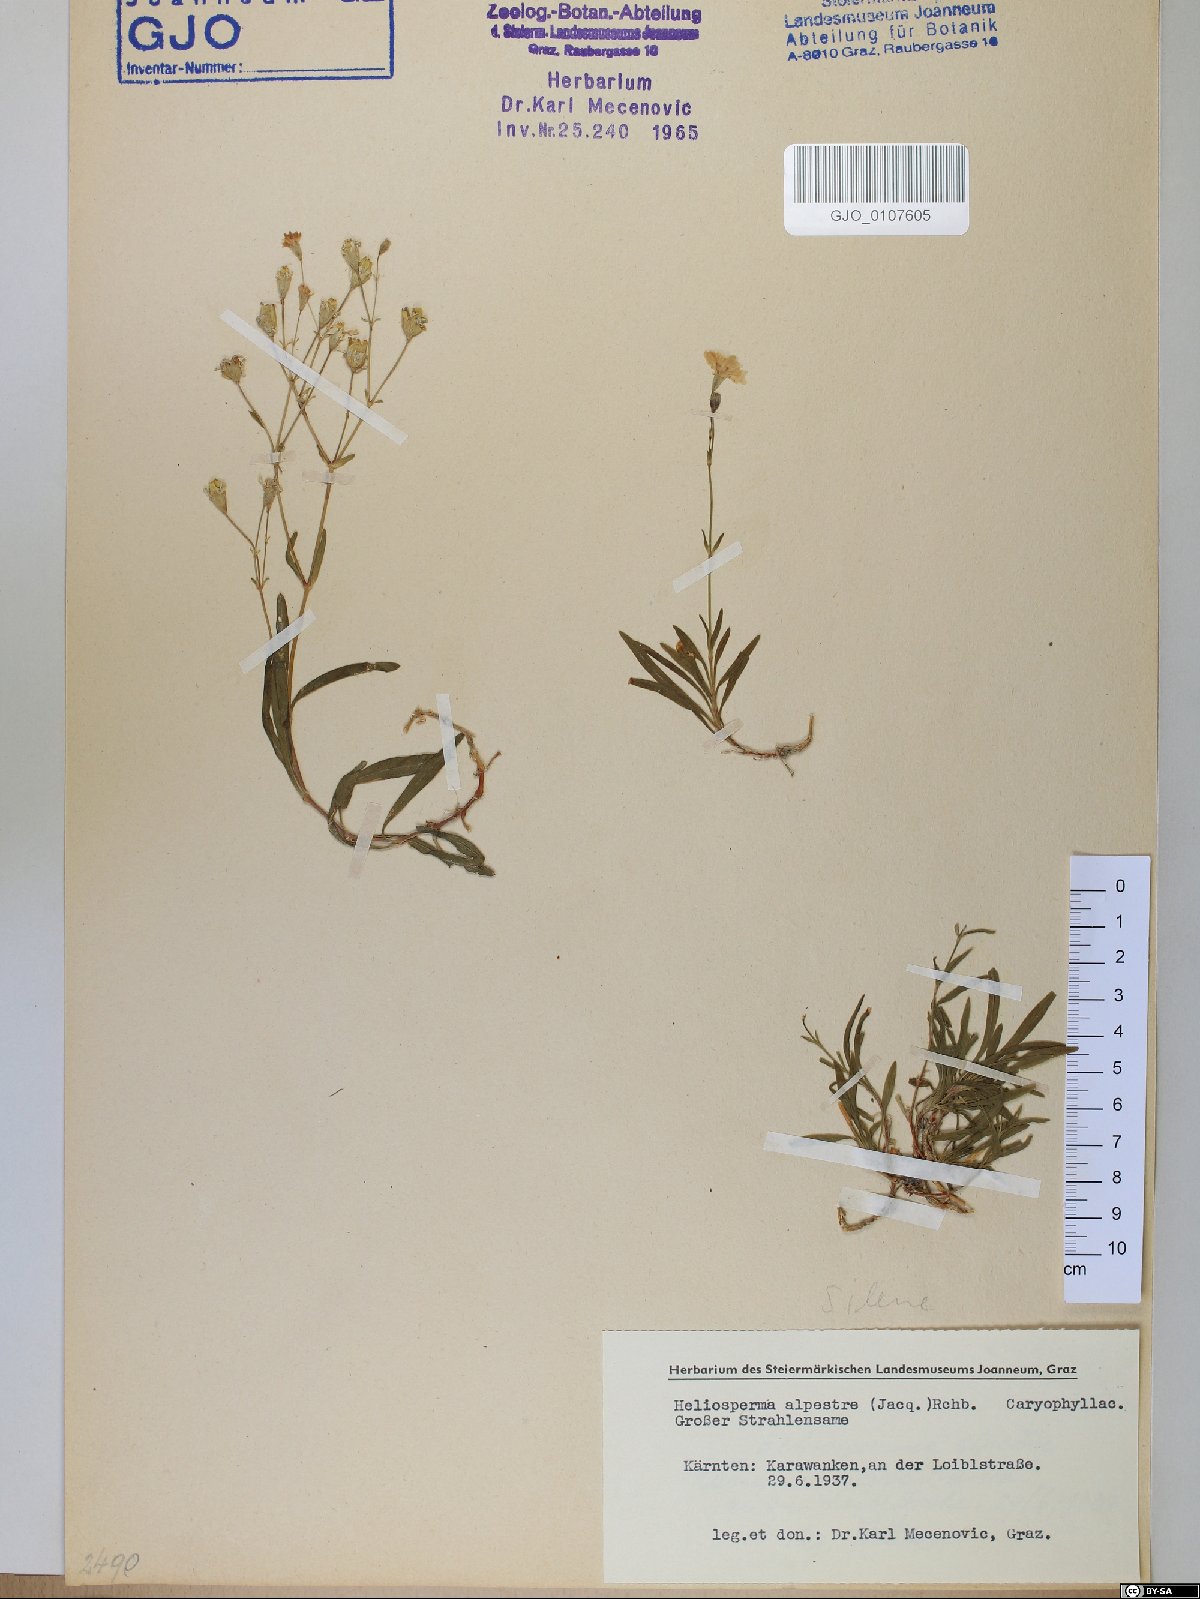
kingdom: Plantae
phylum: Tracheophyta
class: Magnoliopsida
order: Caryophyllales
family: Caryophyllaceae
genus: Heliosperma
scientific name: Heliosperma alpestre
